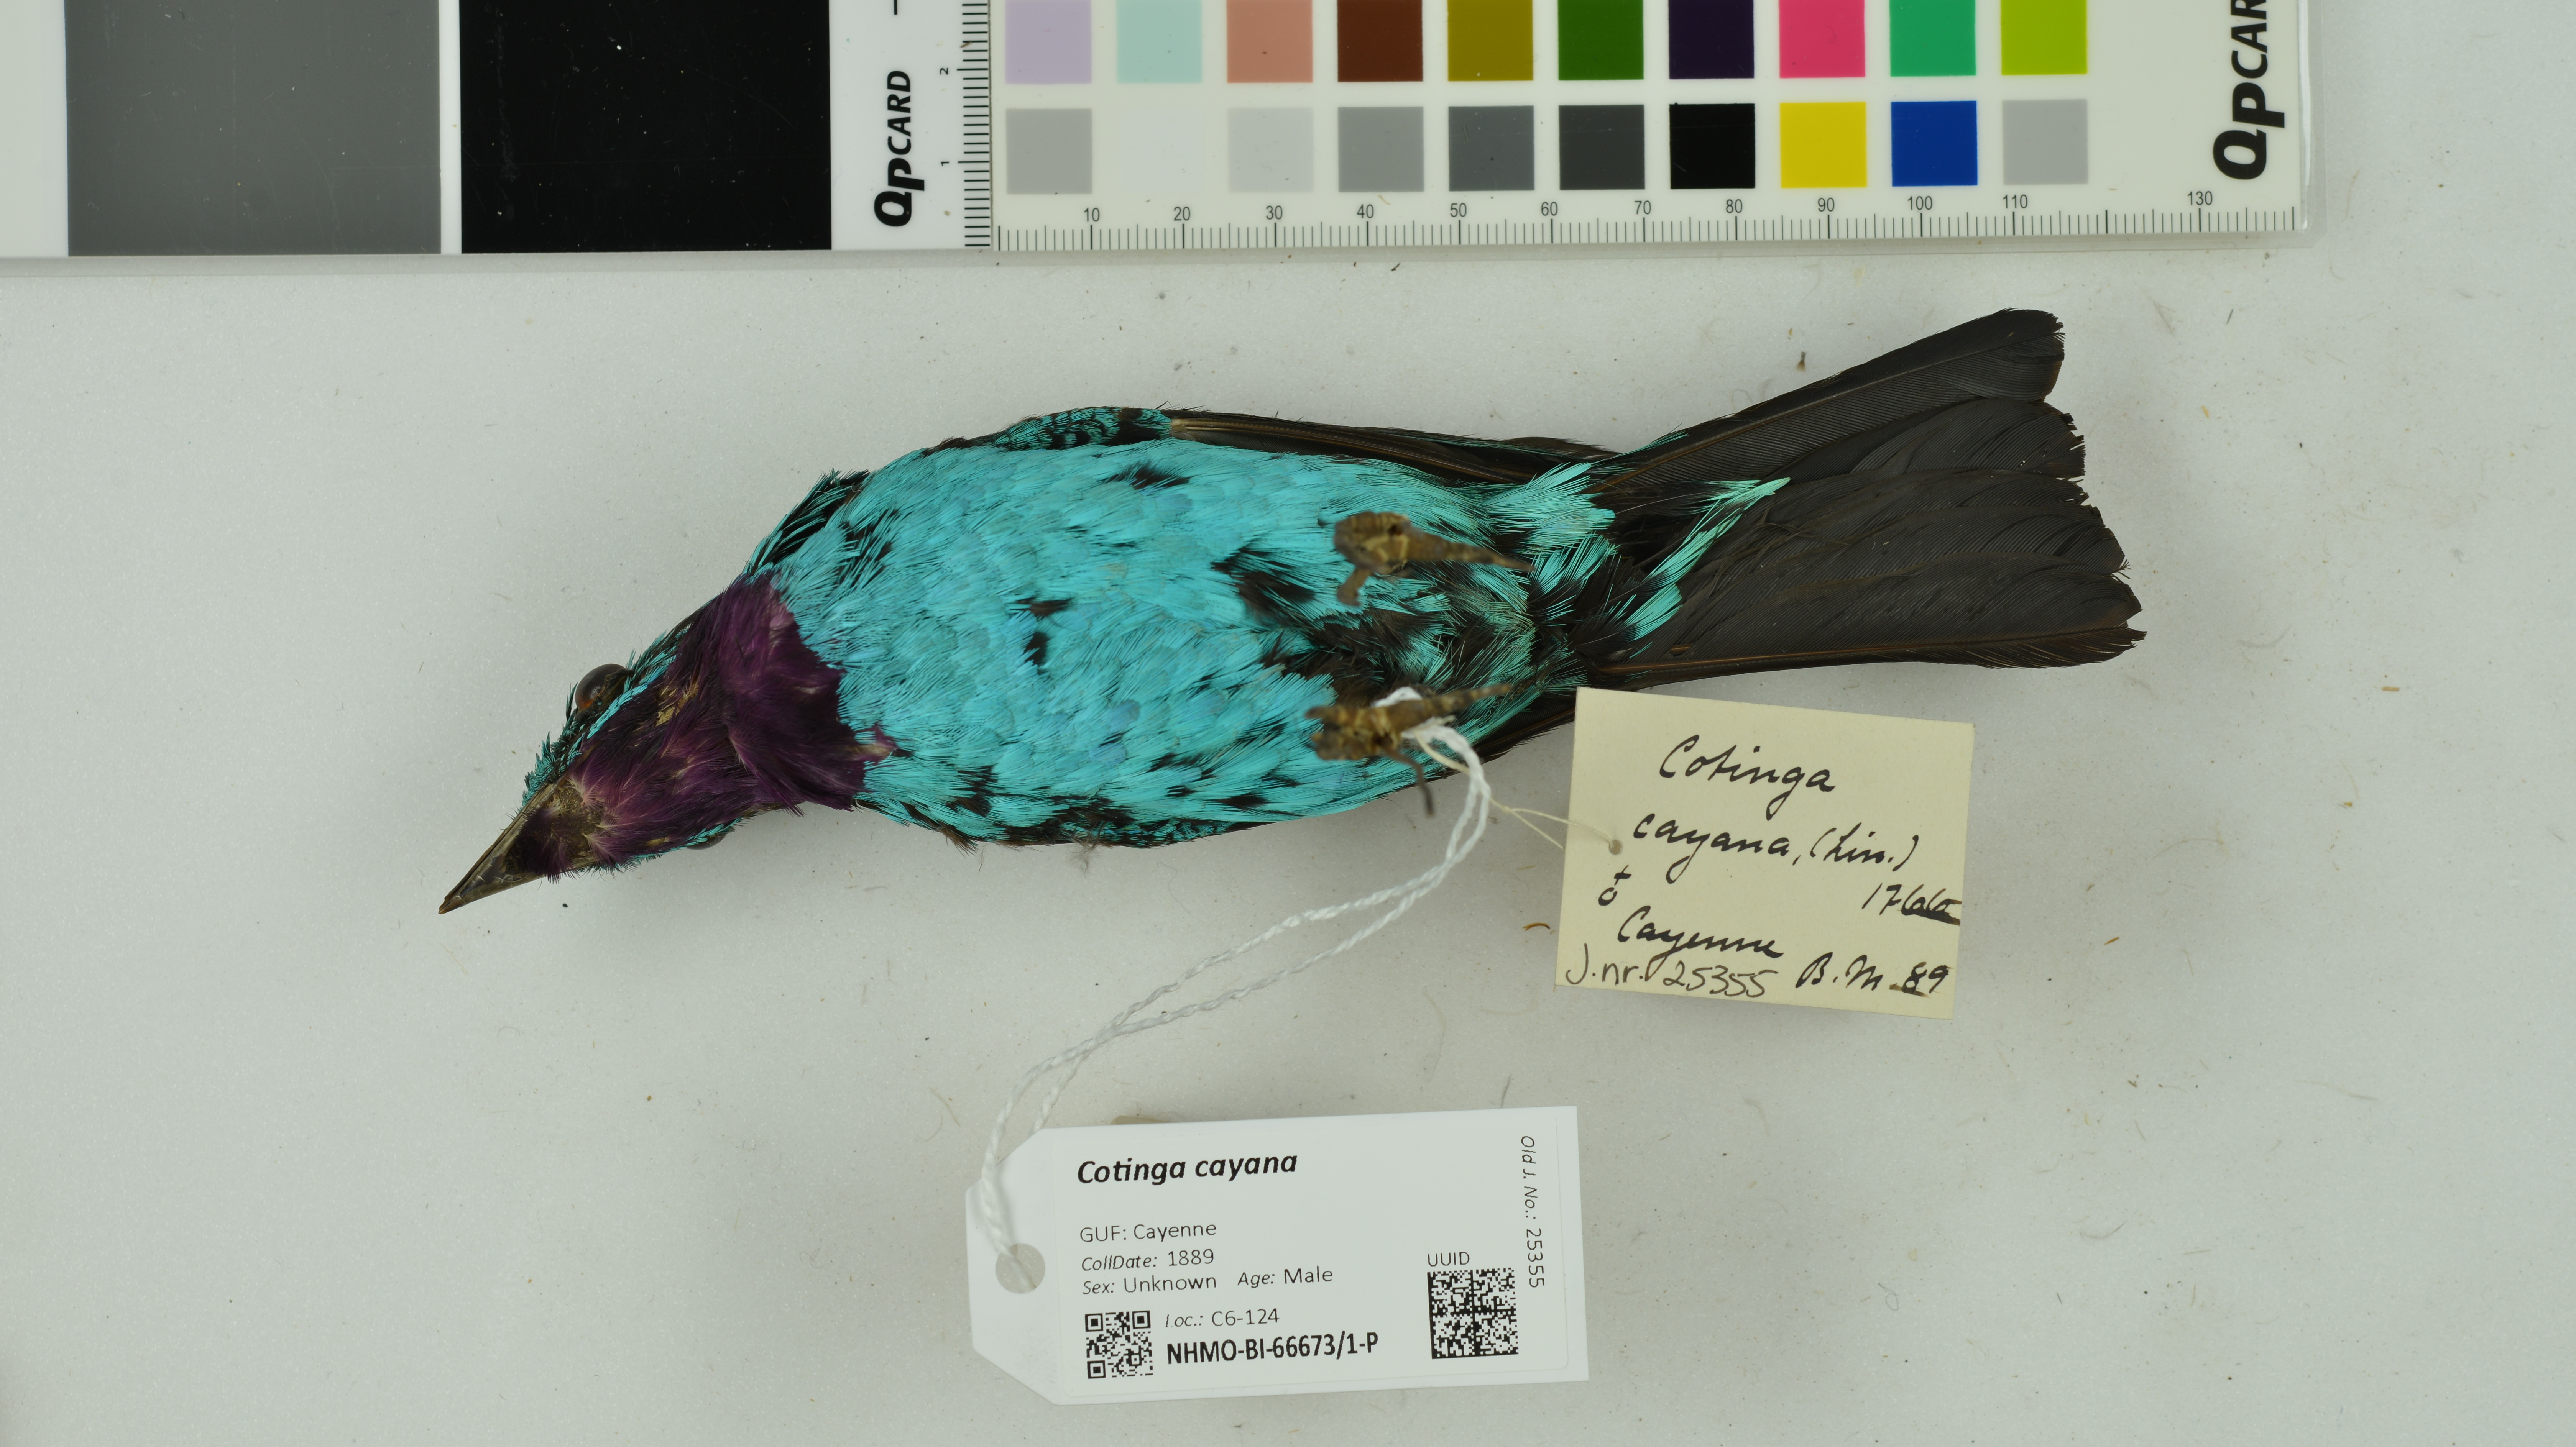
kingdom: Animalia
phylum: Chordata
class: Aves
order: Passeriformes
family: Cotingidae
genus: Cotinga
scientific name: Cotinga cayana
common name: Spangled cotinga
